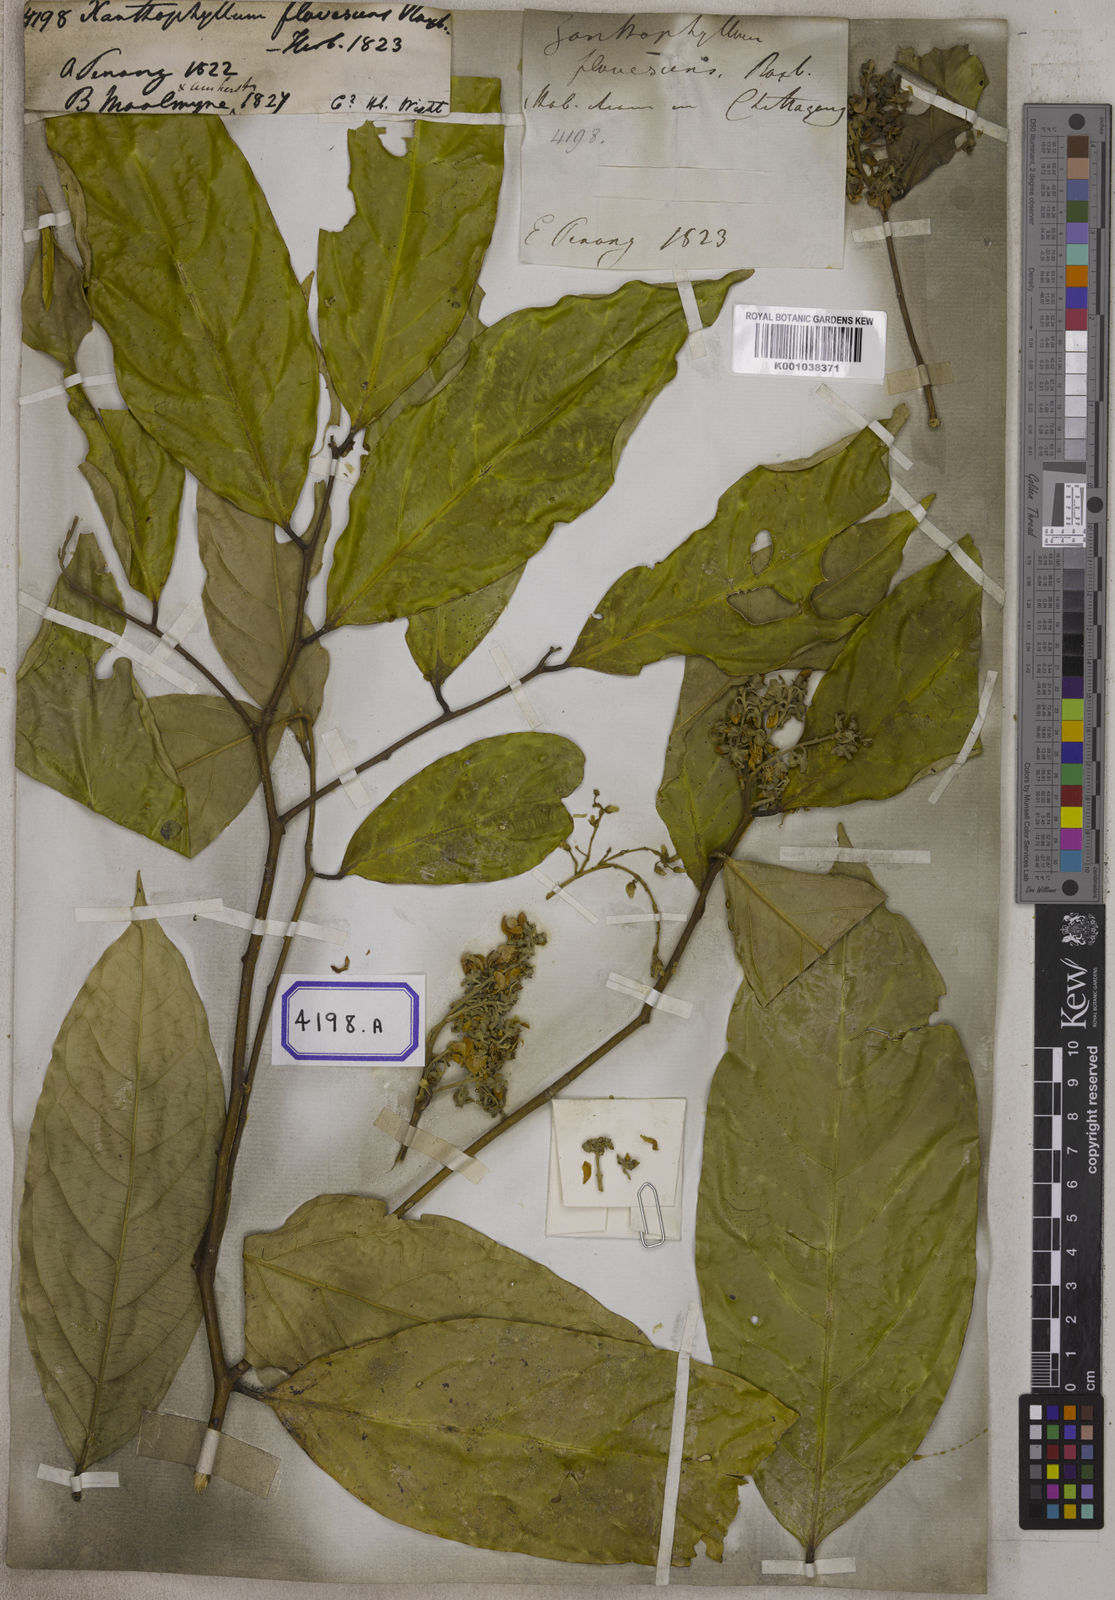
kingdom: Plantae
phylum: Tracheophyta
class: Magnoliopsida
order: Fabales
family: Polygalaceae
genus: Xanthophyllum
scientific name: Xanthophyllum flavescens
